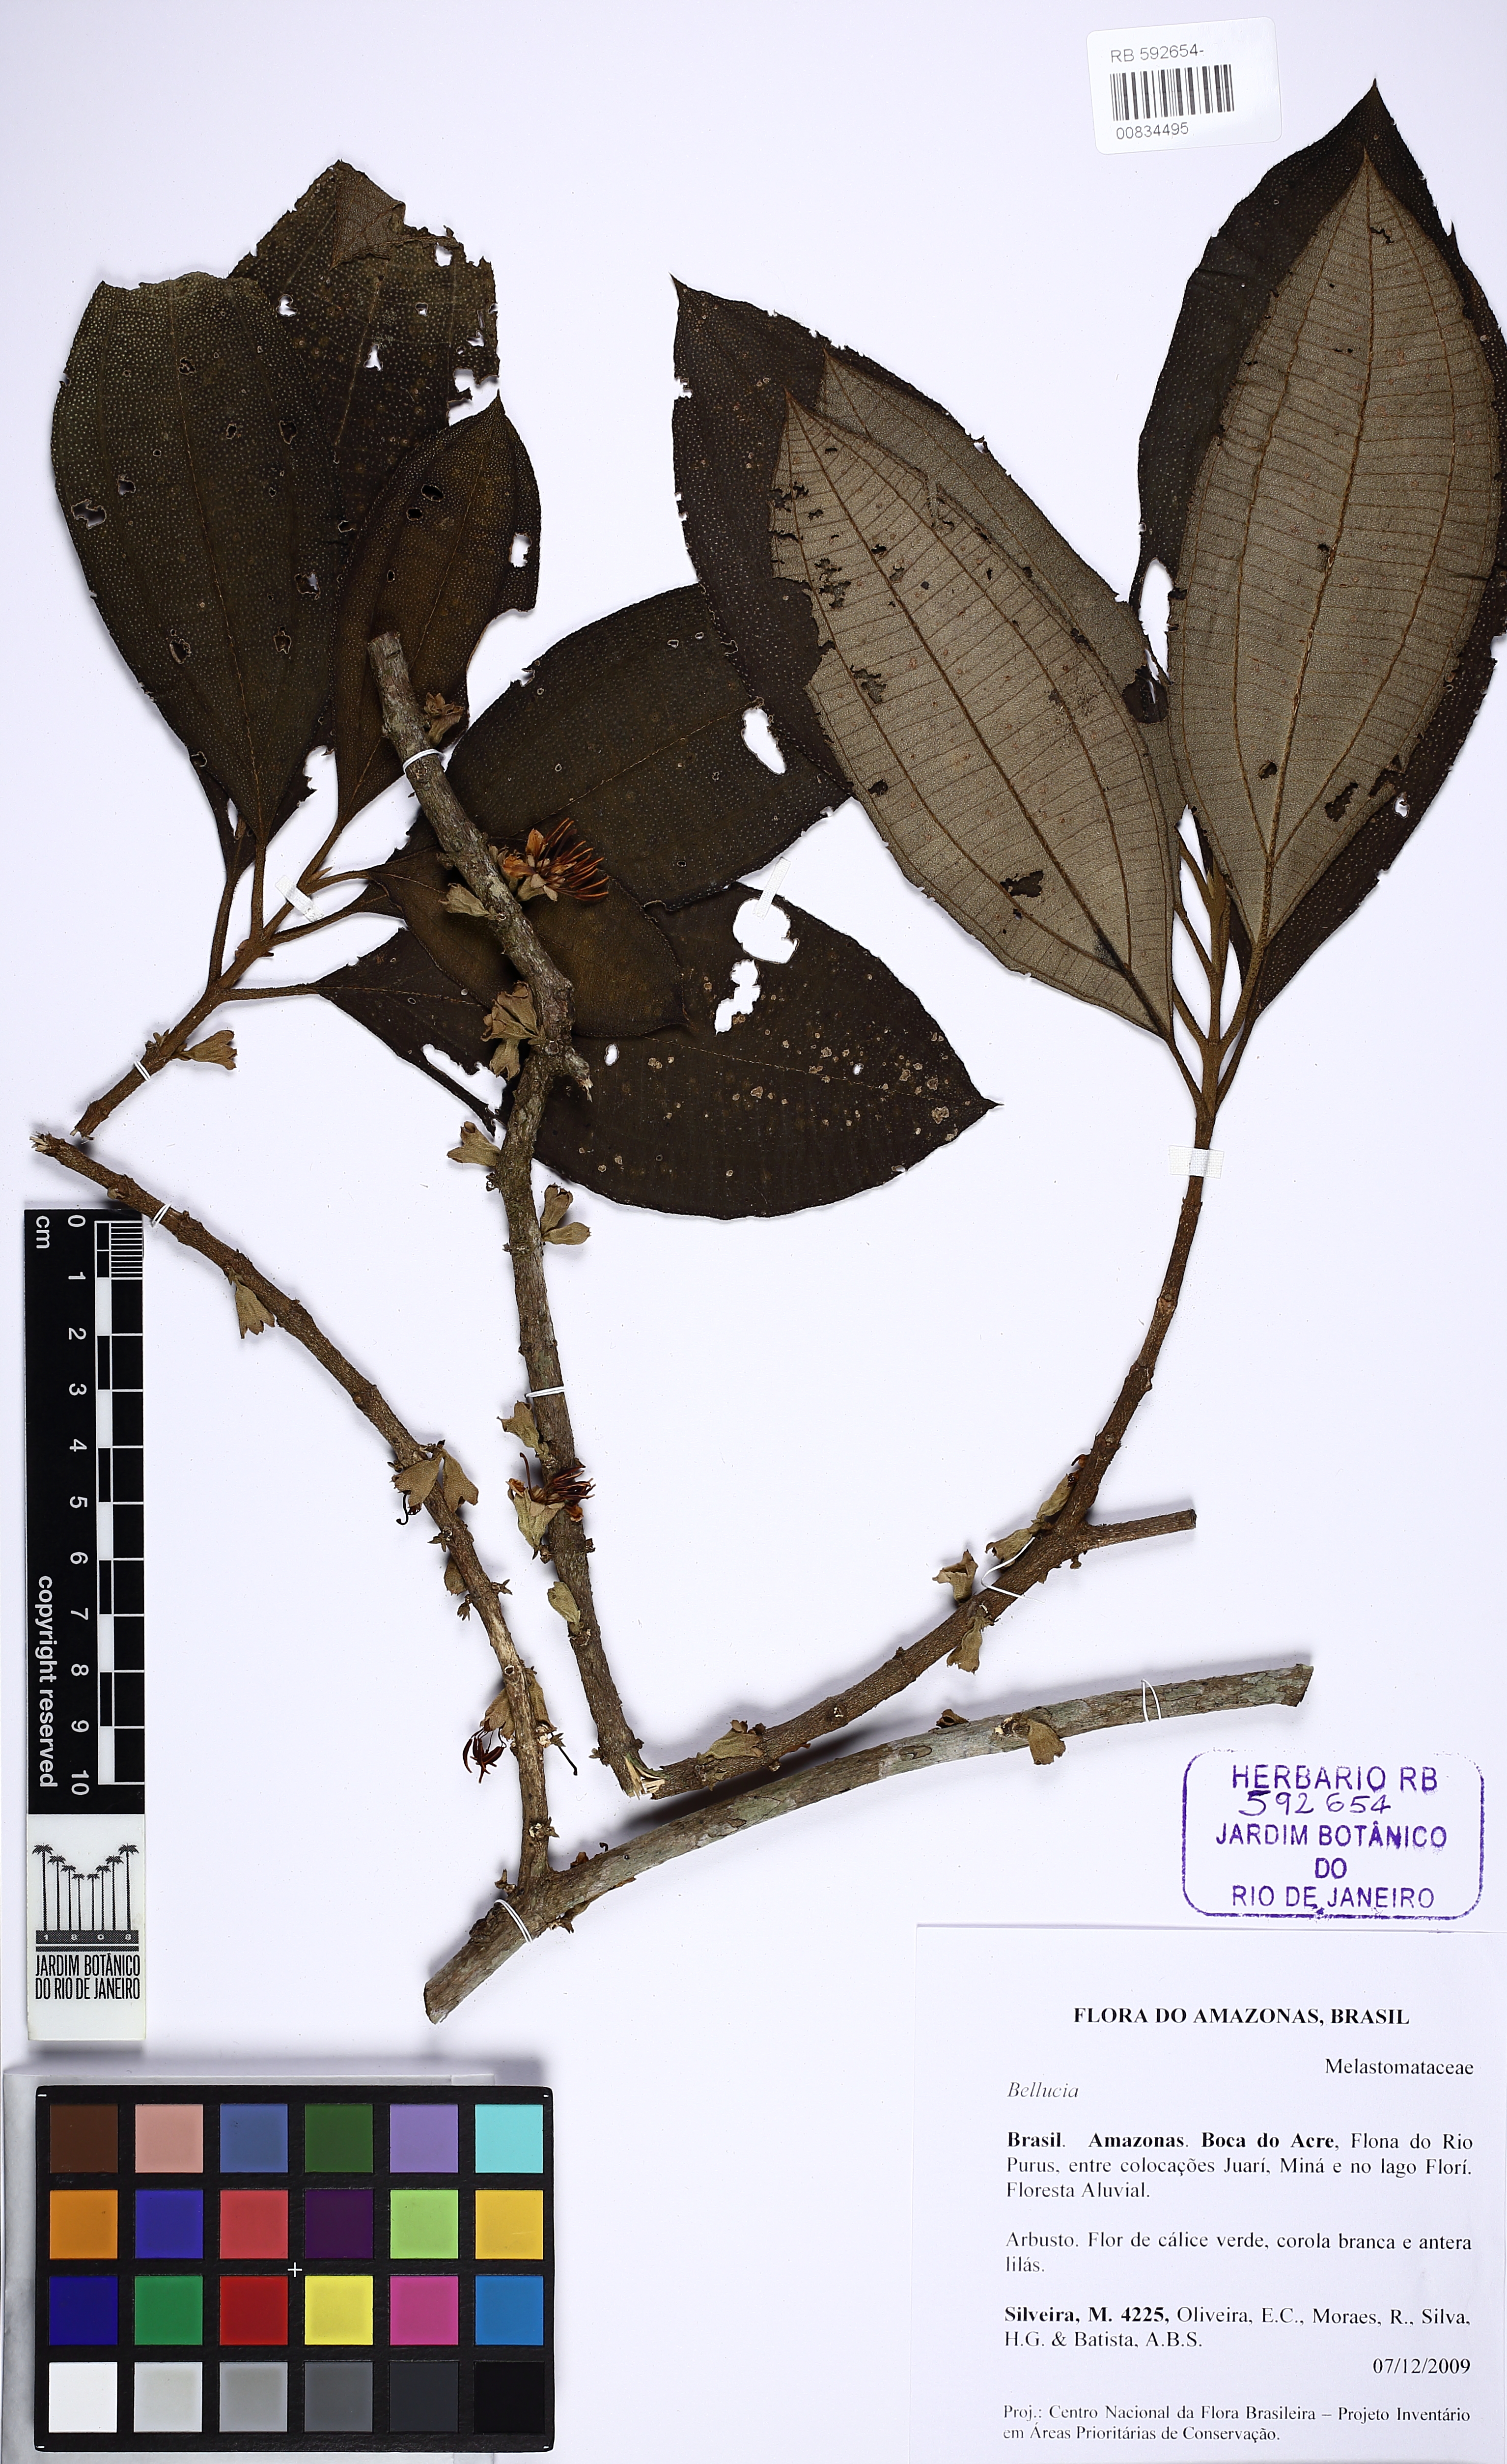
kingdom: Plantae
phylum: Tracheophyta
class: Magnoliopsida
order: Myrtales
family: Melastomataceae
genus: Bellucia
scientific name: Bellucia
